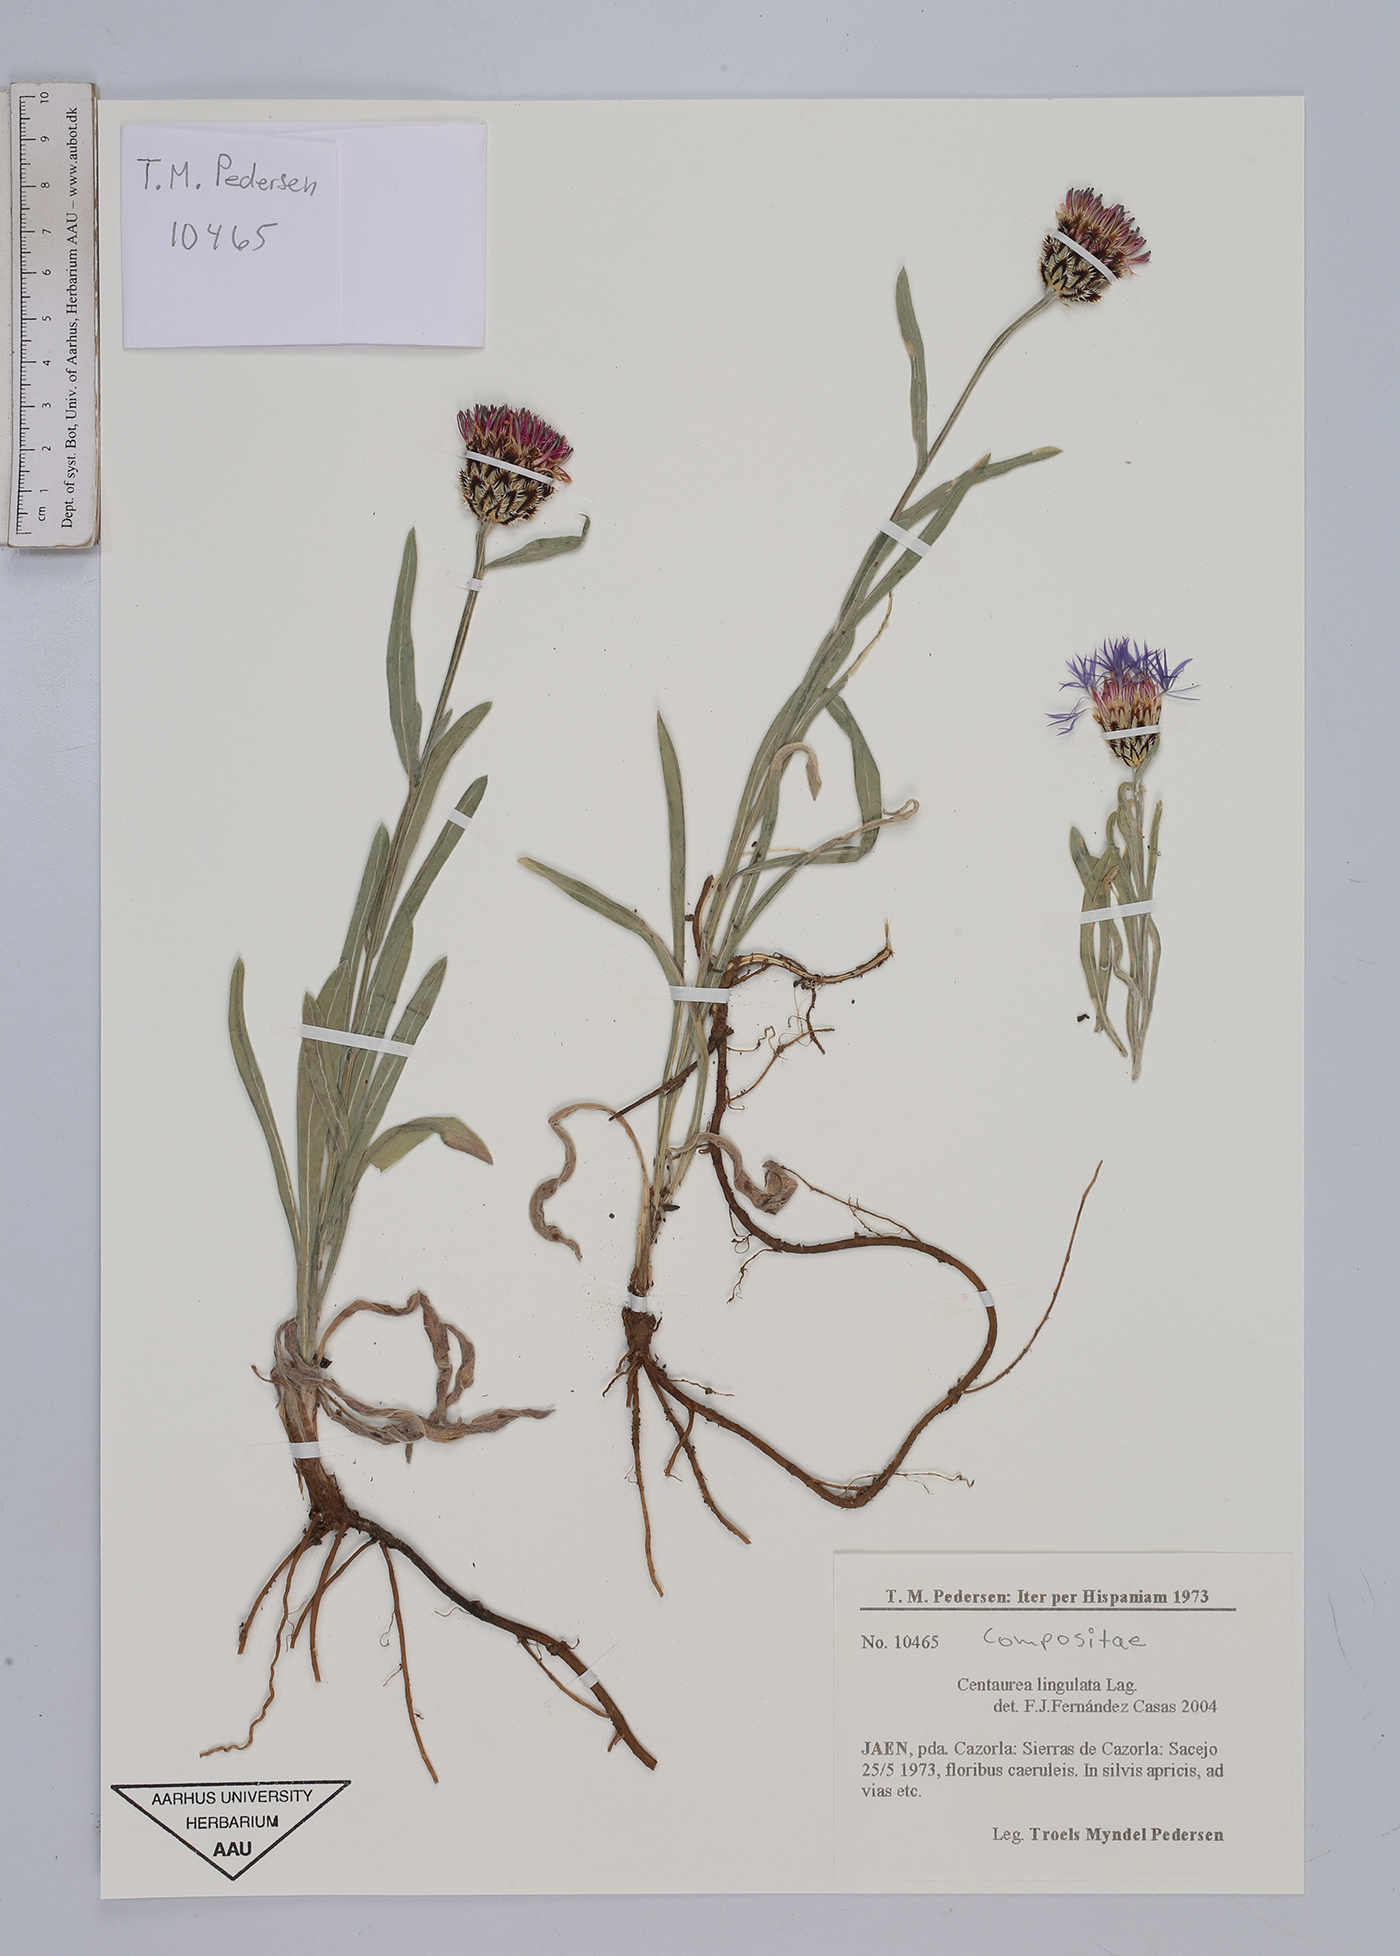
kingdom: Plantae
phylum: Tracheophyta
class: Magnoliopsida
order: Asterales
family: Asteraceae
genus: Centaurea
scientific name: Centaurea graminifolia
